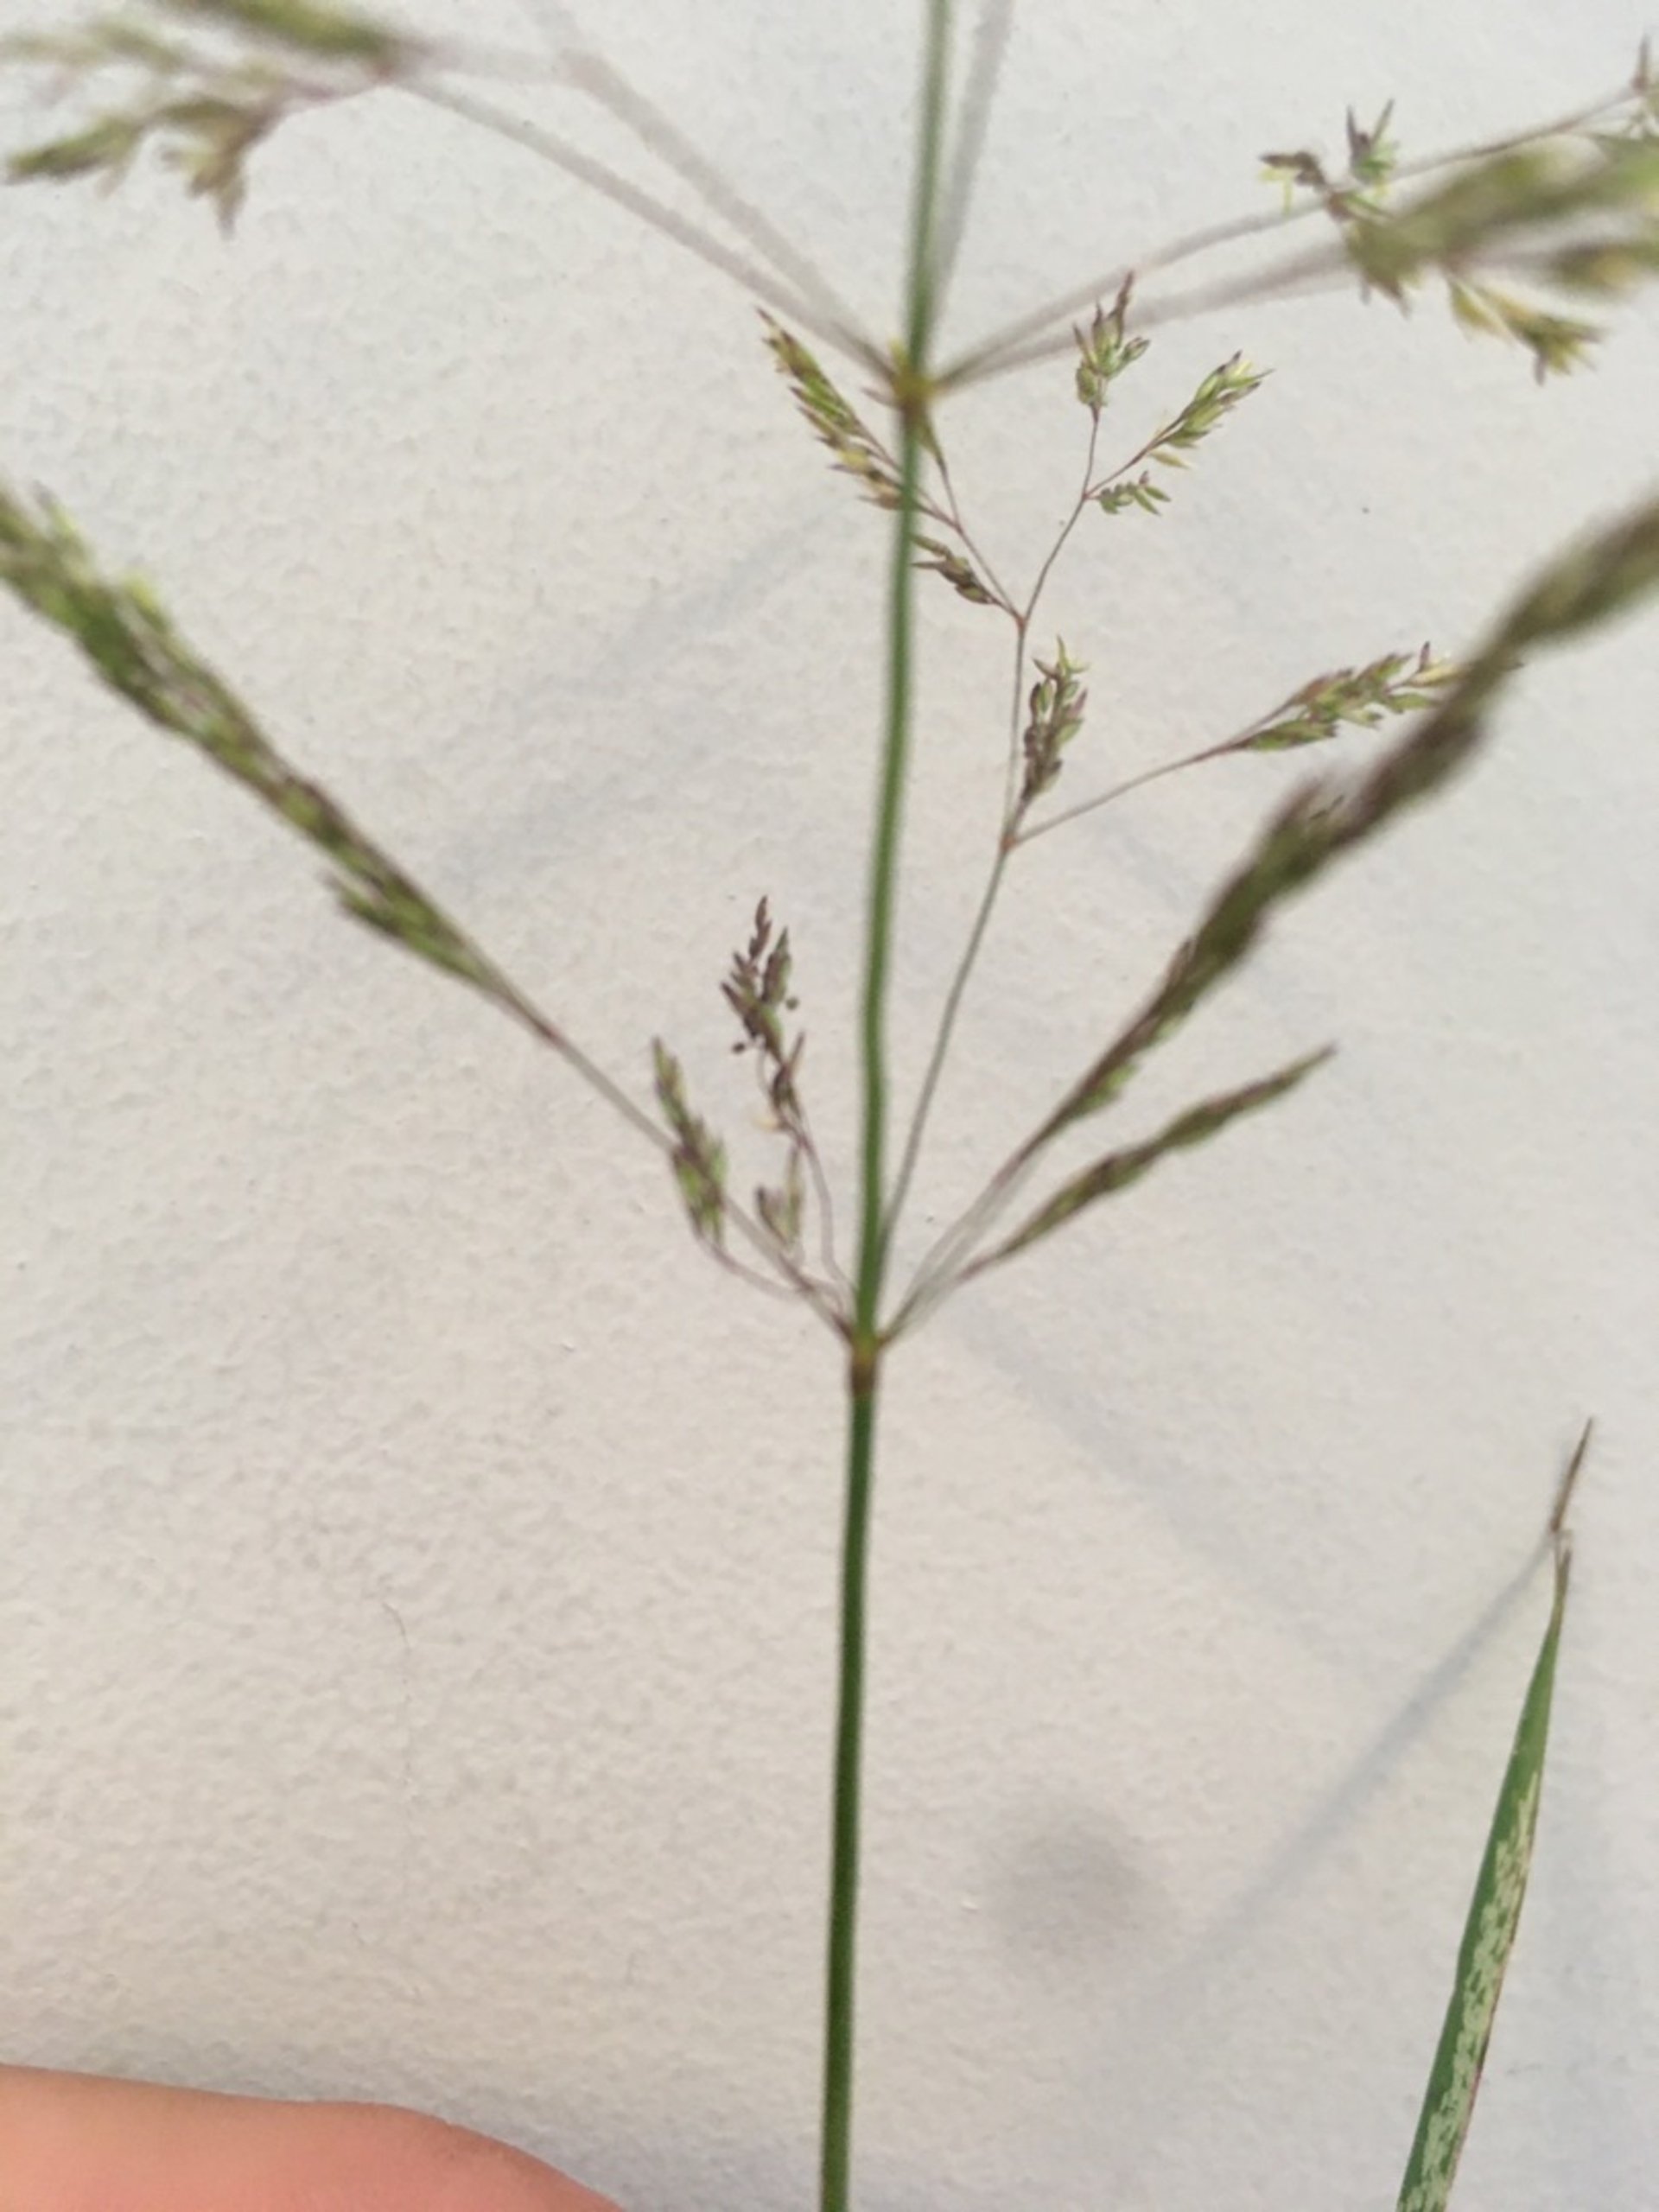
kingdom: Plantae
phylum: Tracheophyta
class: Liliopsida
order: Poales
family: Poaceae
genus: Agrostis
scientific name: Agrostis stolonifera
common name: Kryb-hvene
